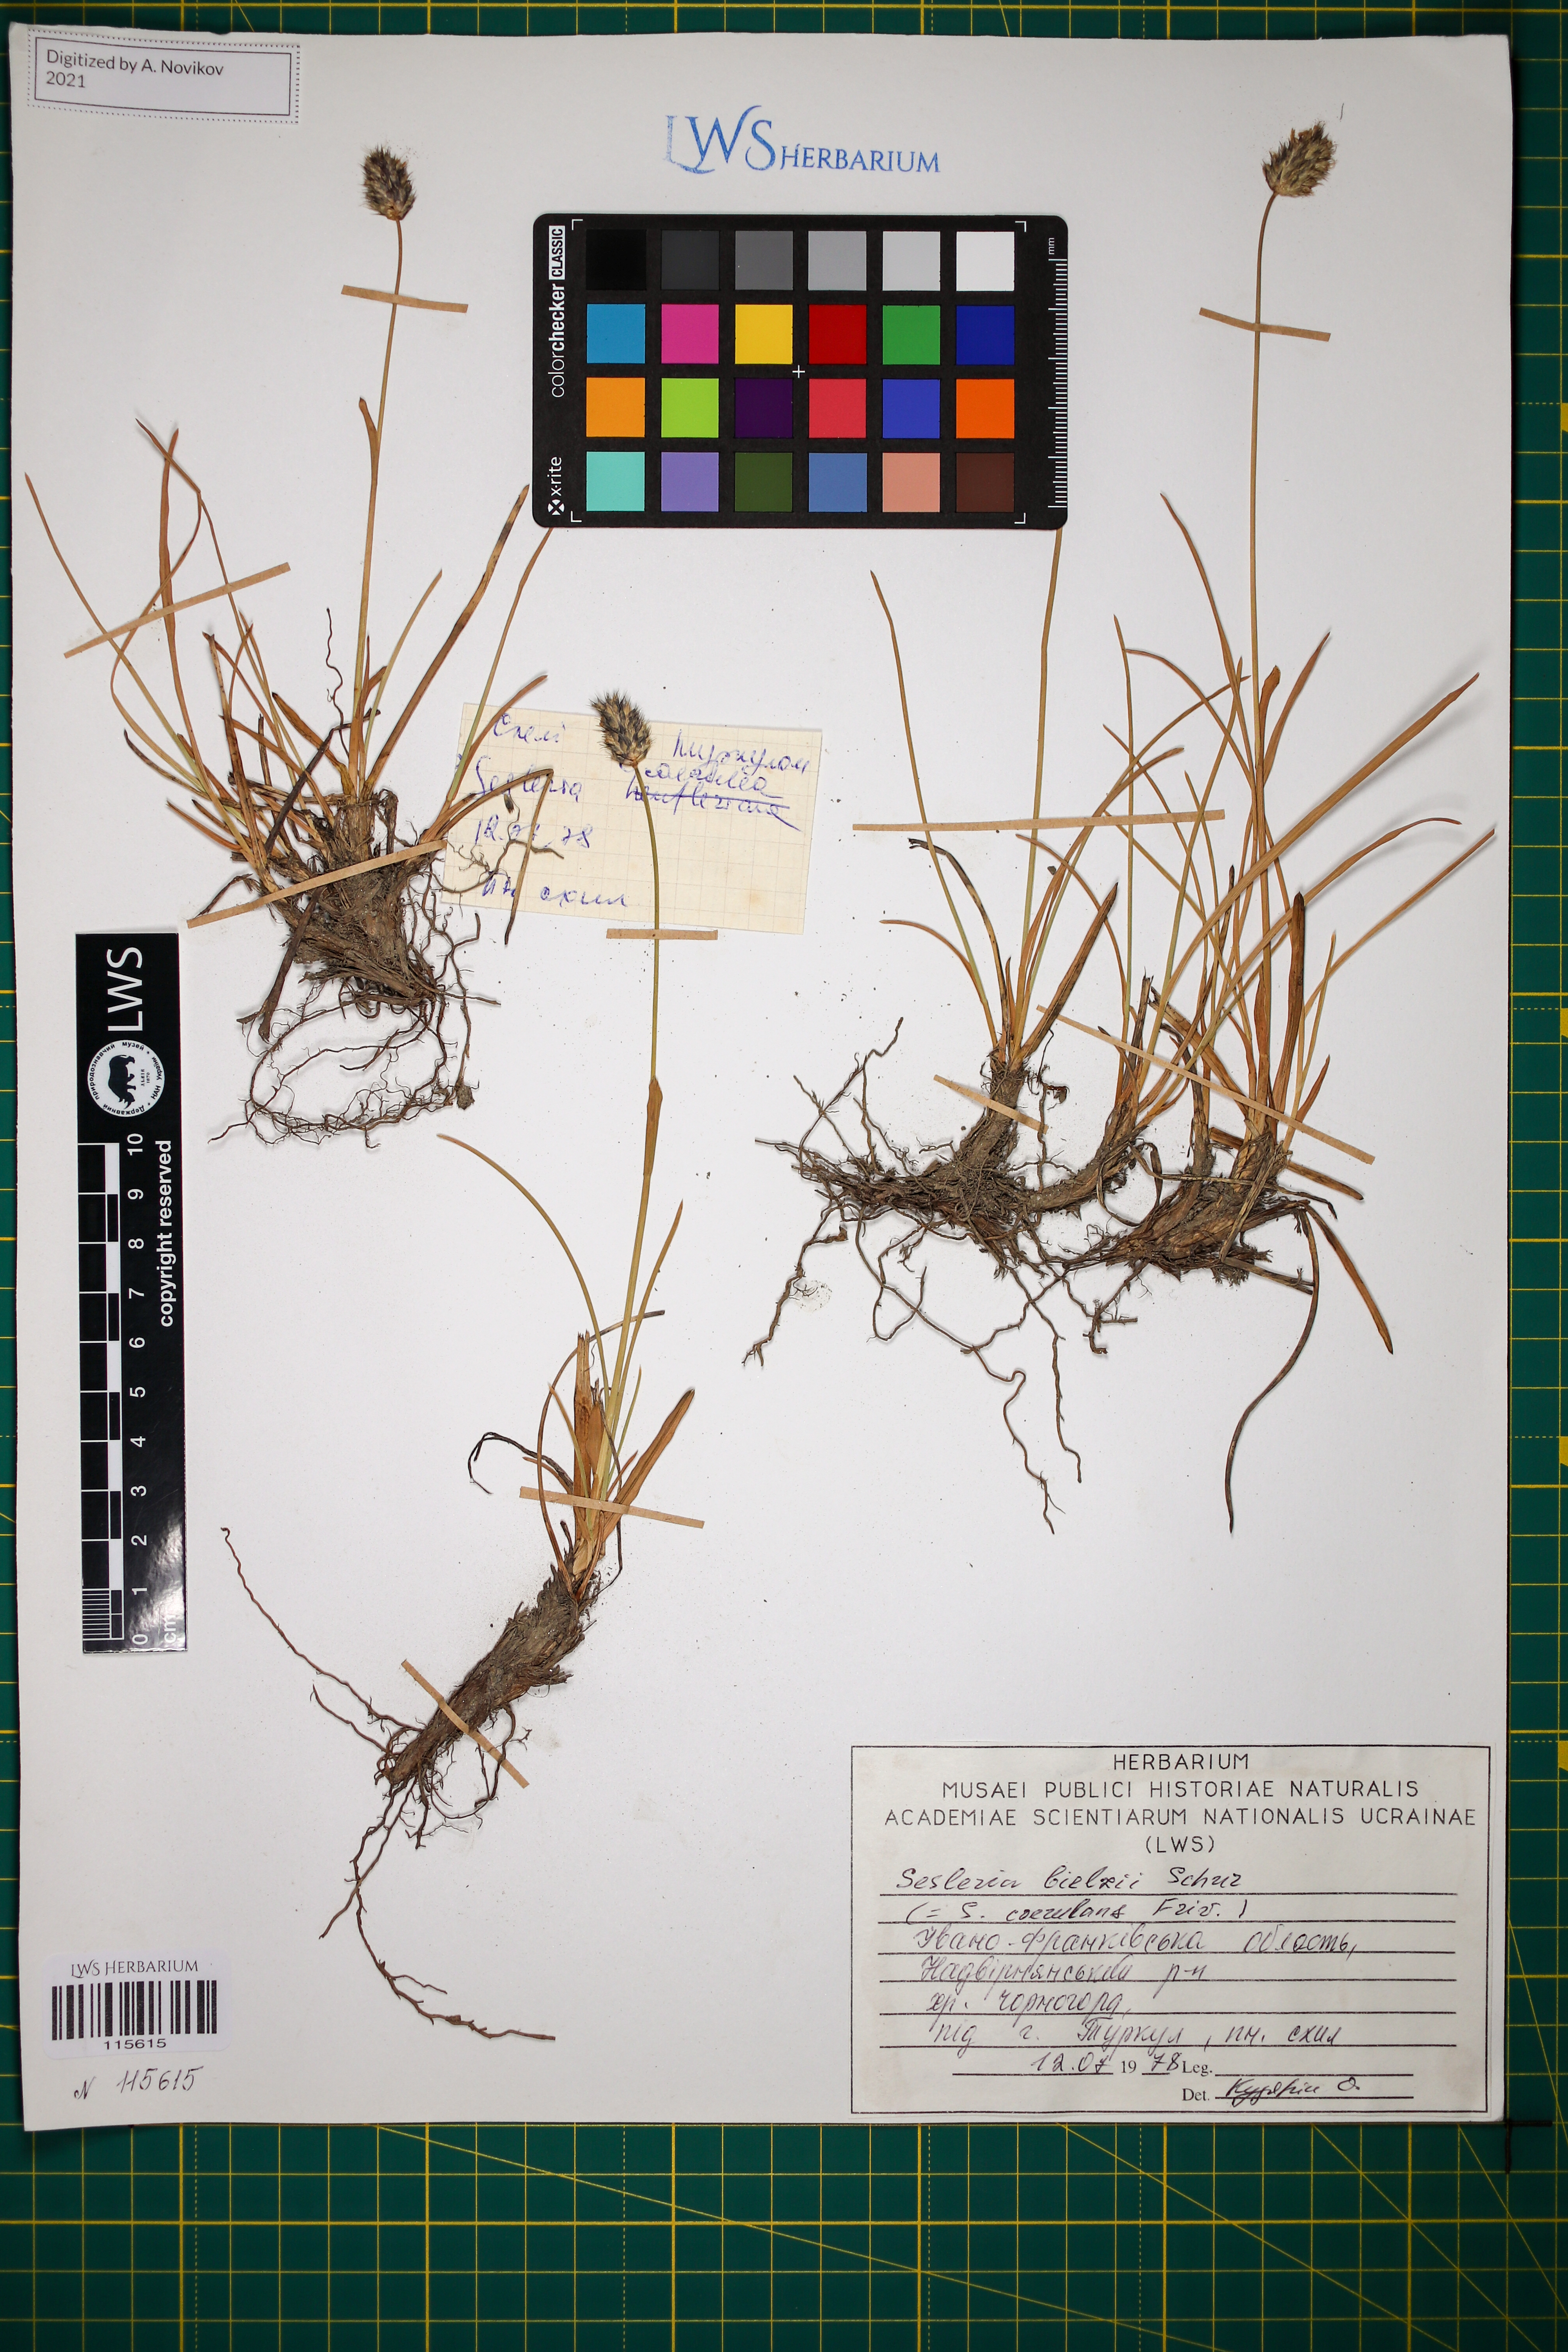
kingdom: Plantae
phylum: Tracheophyta
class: Liliopsida
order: Poales
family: Poaceae
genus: Sesleria
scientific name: Sesleria bielzii
